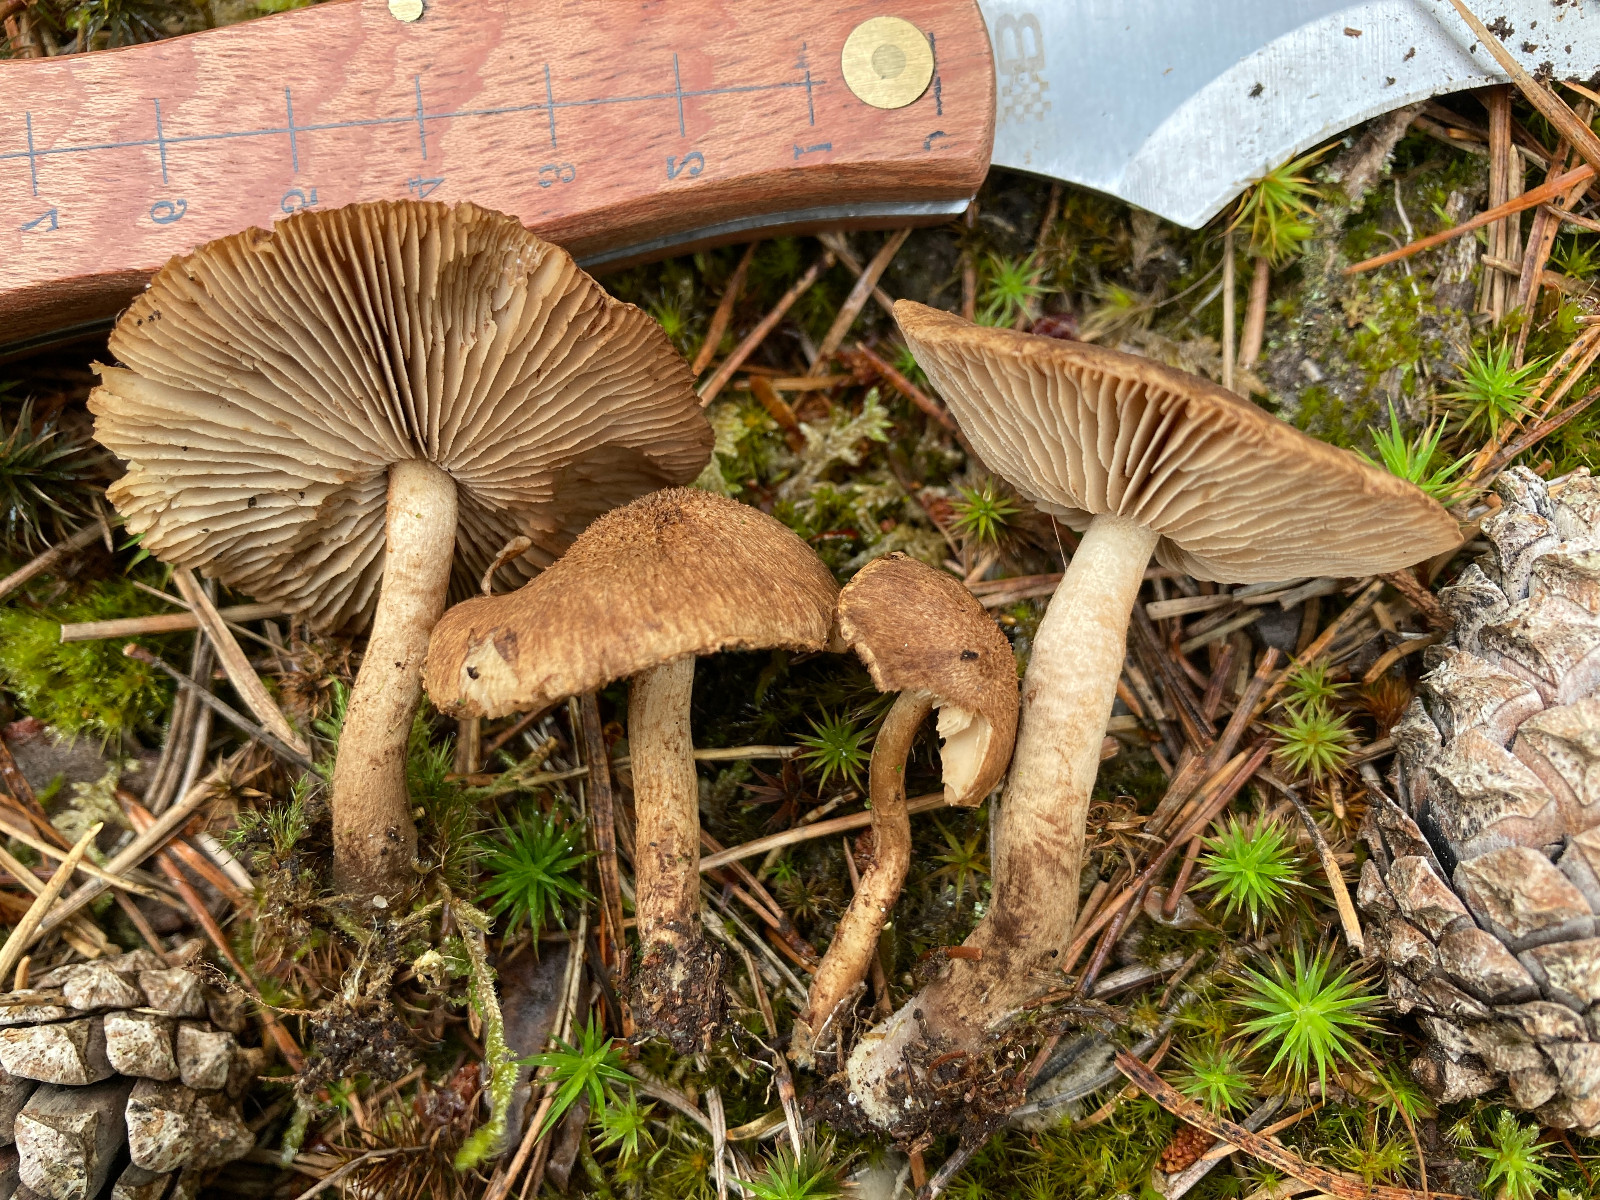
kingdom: Fungi
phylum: Basidiomycota
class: Agaricomycetes
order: Agaricales
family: Inocybaceae
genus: Inocybe
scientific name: Inocybe
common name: trævlhat
